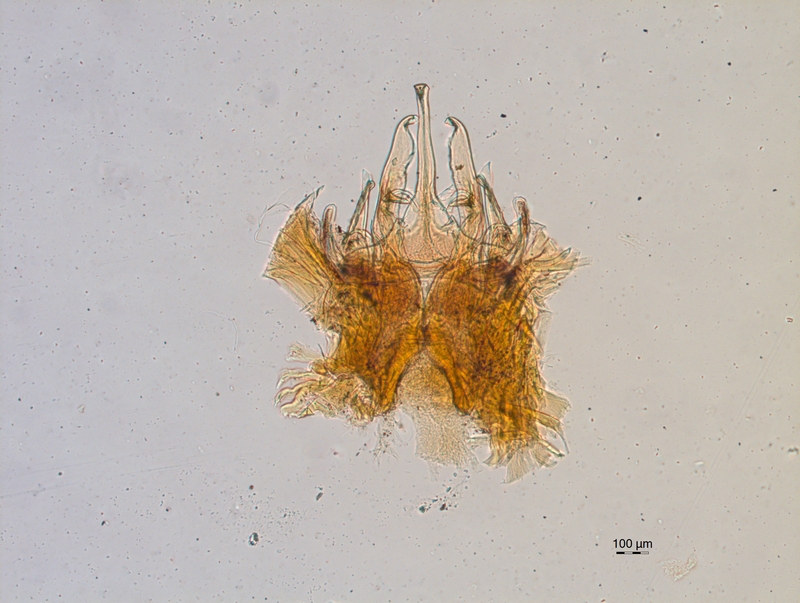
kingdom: Animalia
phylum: Arthropoda
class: Diplopoda
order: Chordeumatida
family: Chordeumatidae
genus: Mycogona
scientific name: Mycogona germanica
